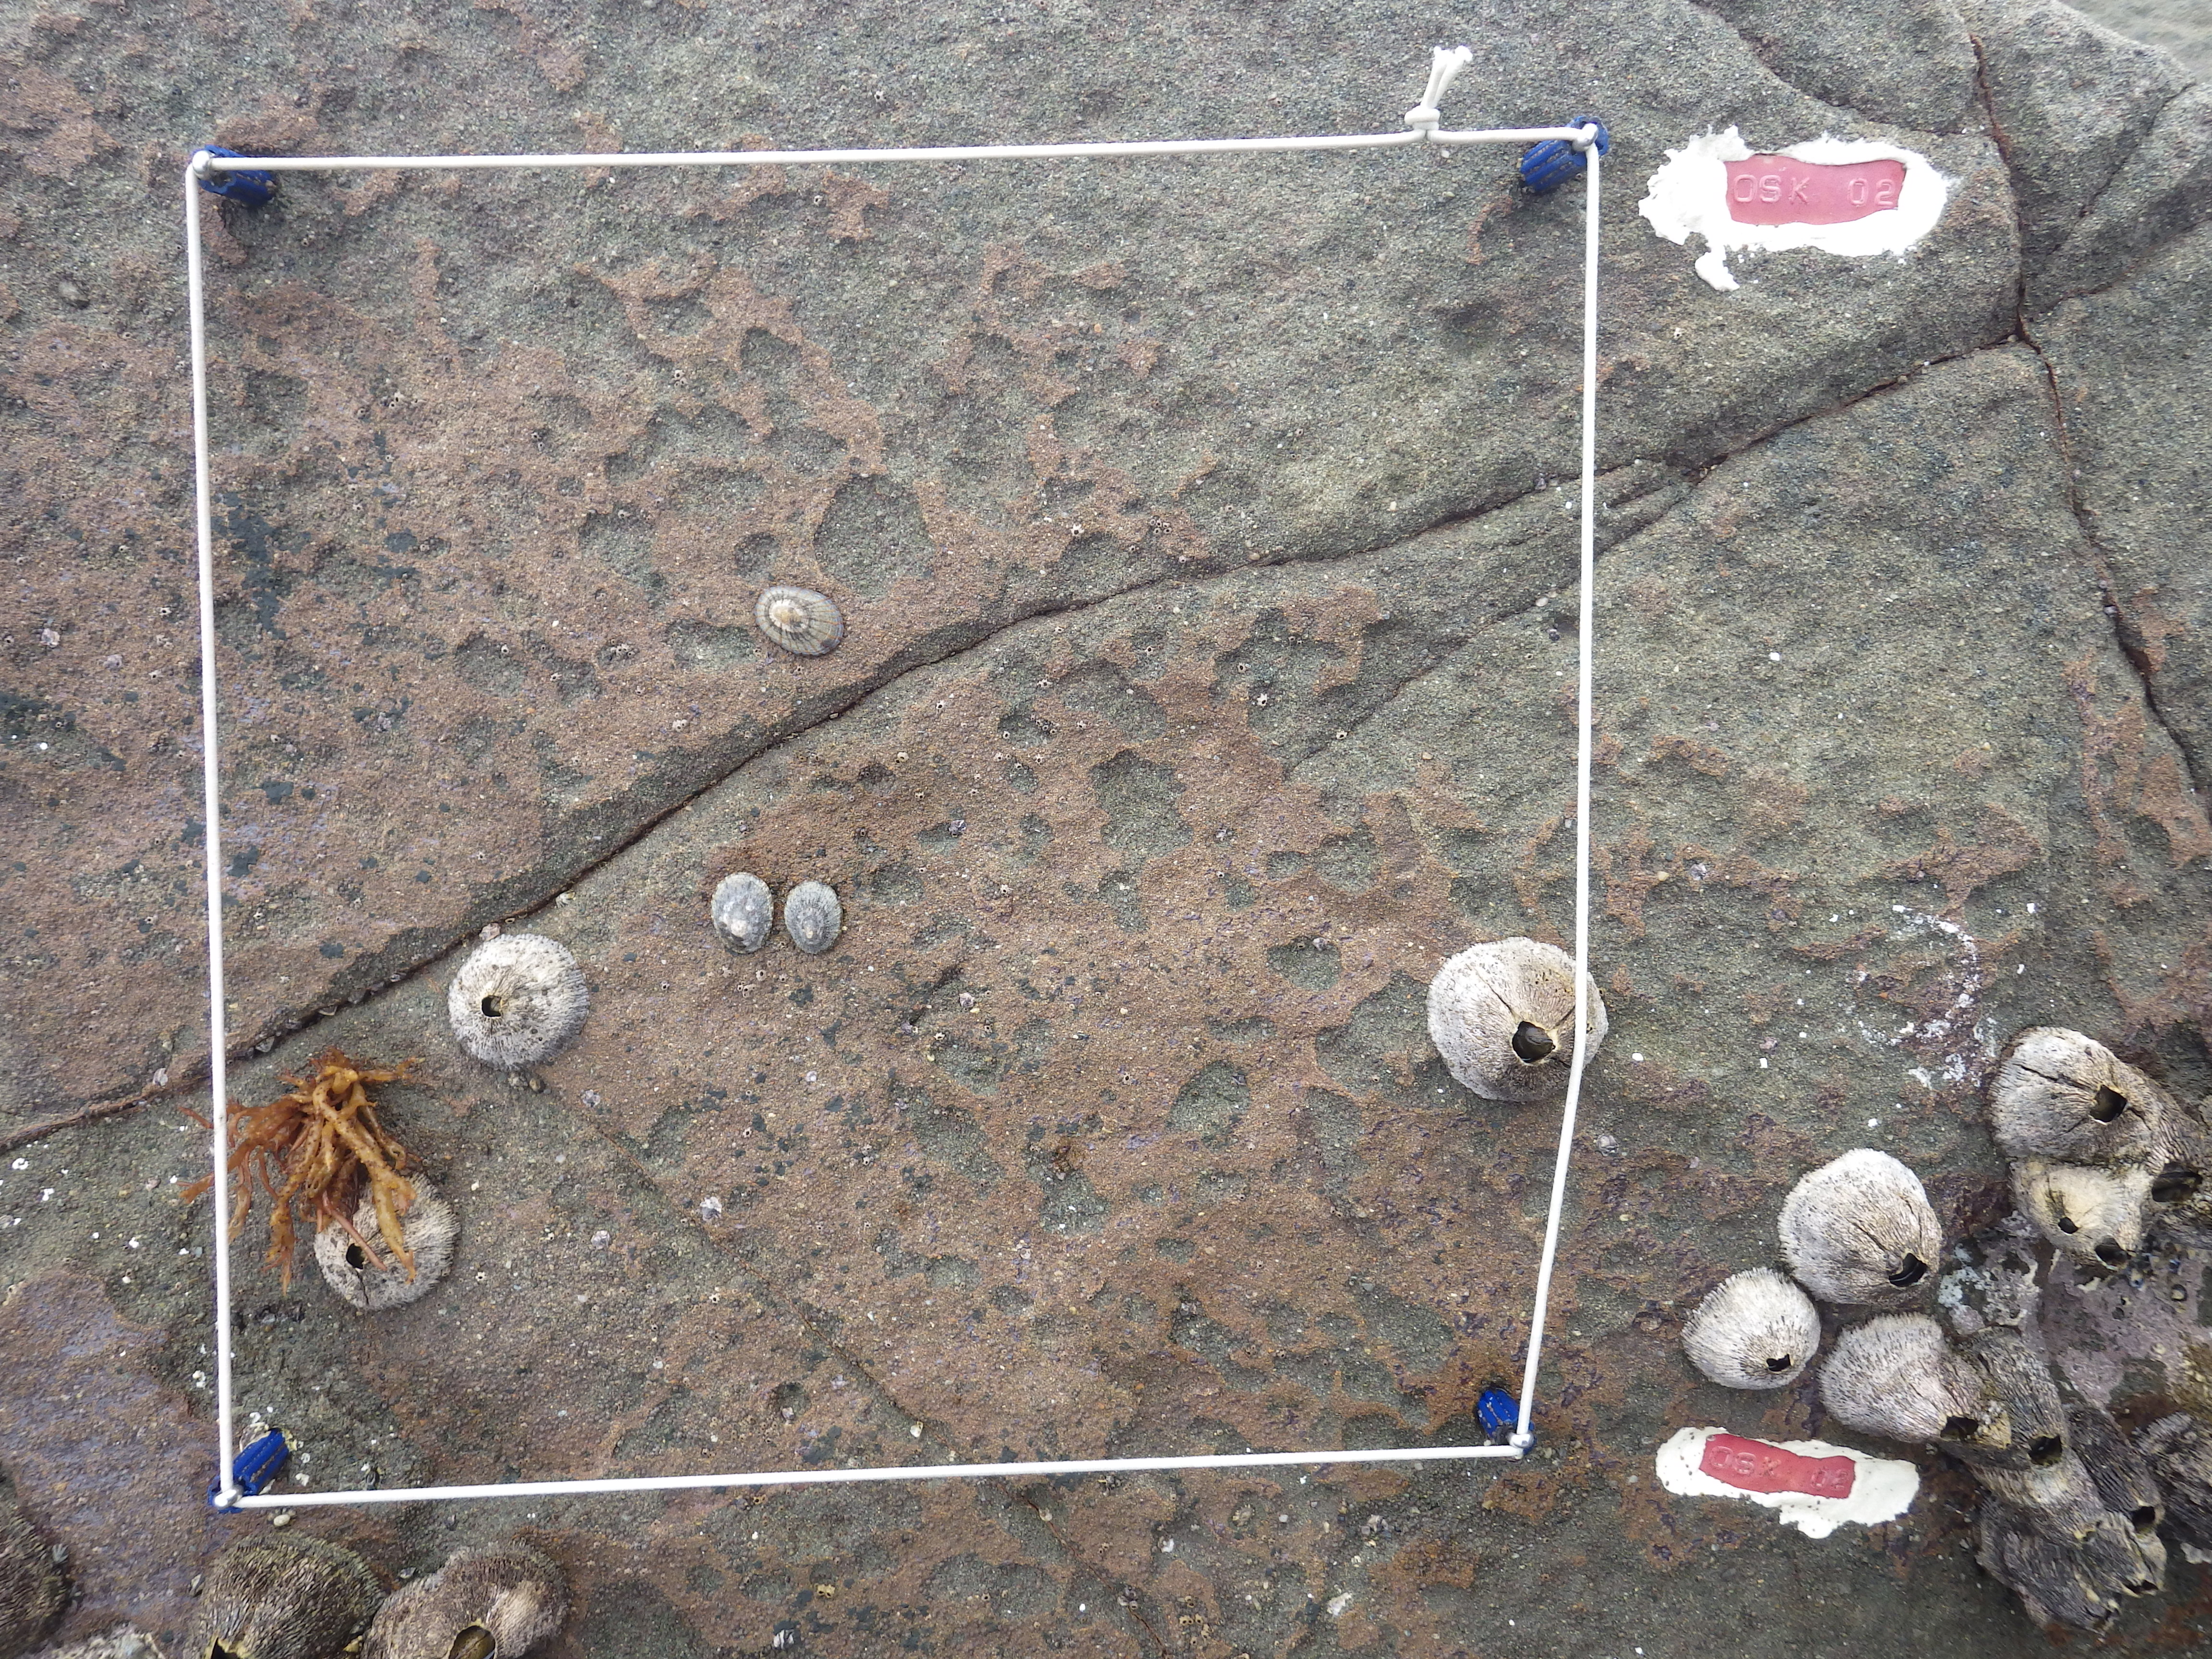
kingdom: Animalia
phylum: Arthropoda
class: Maxillopoda
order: Sessilia
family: Chthamalidae
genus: Chthamalus
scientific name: Chthamalus challengeri
